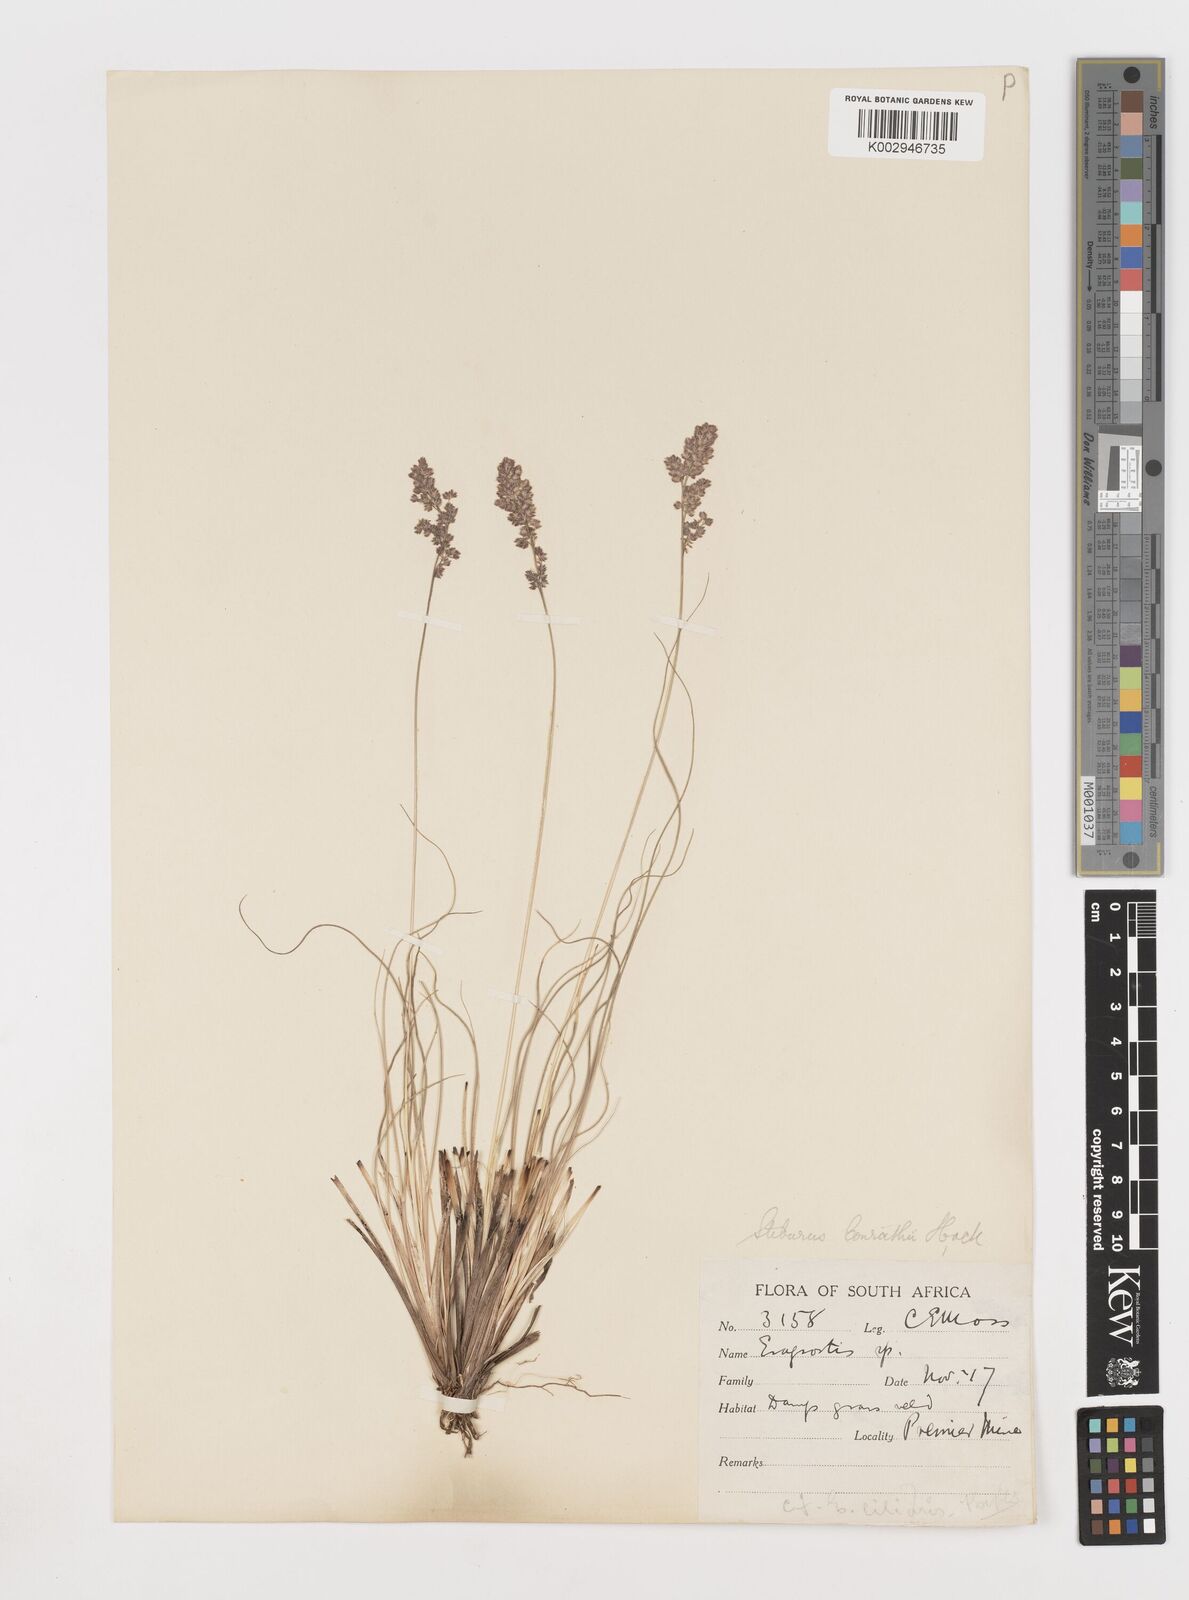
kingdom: Plantae
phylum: Tracheophyta
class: Liliopsida
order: Poales
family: Poaceae
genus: Stiburus
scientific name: Stiburus conrathii
